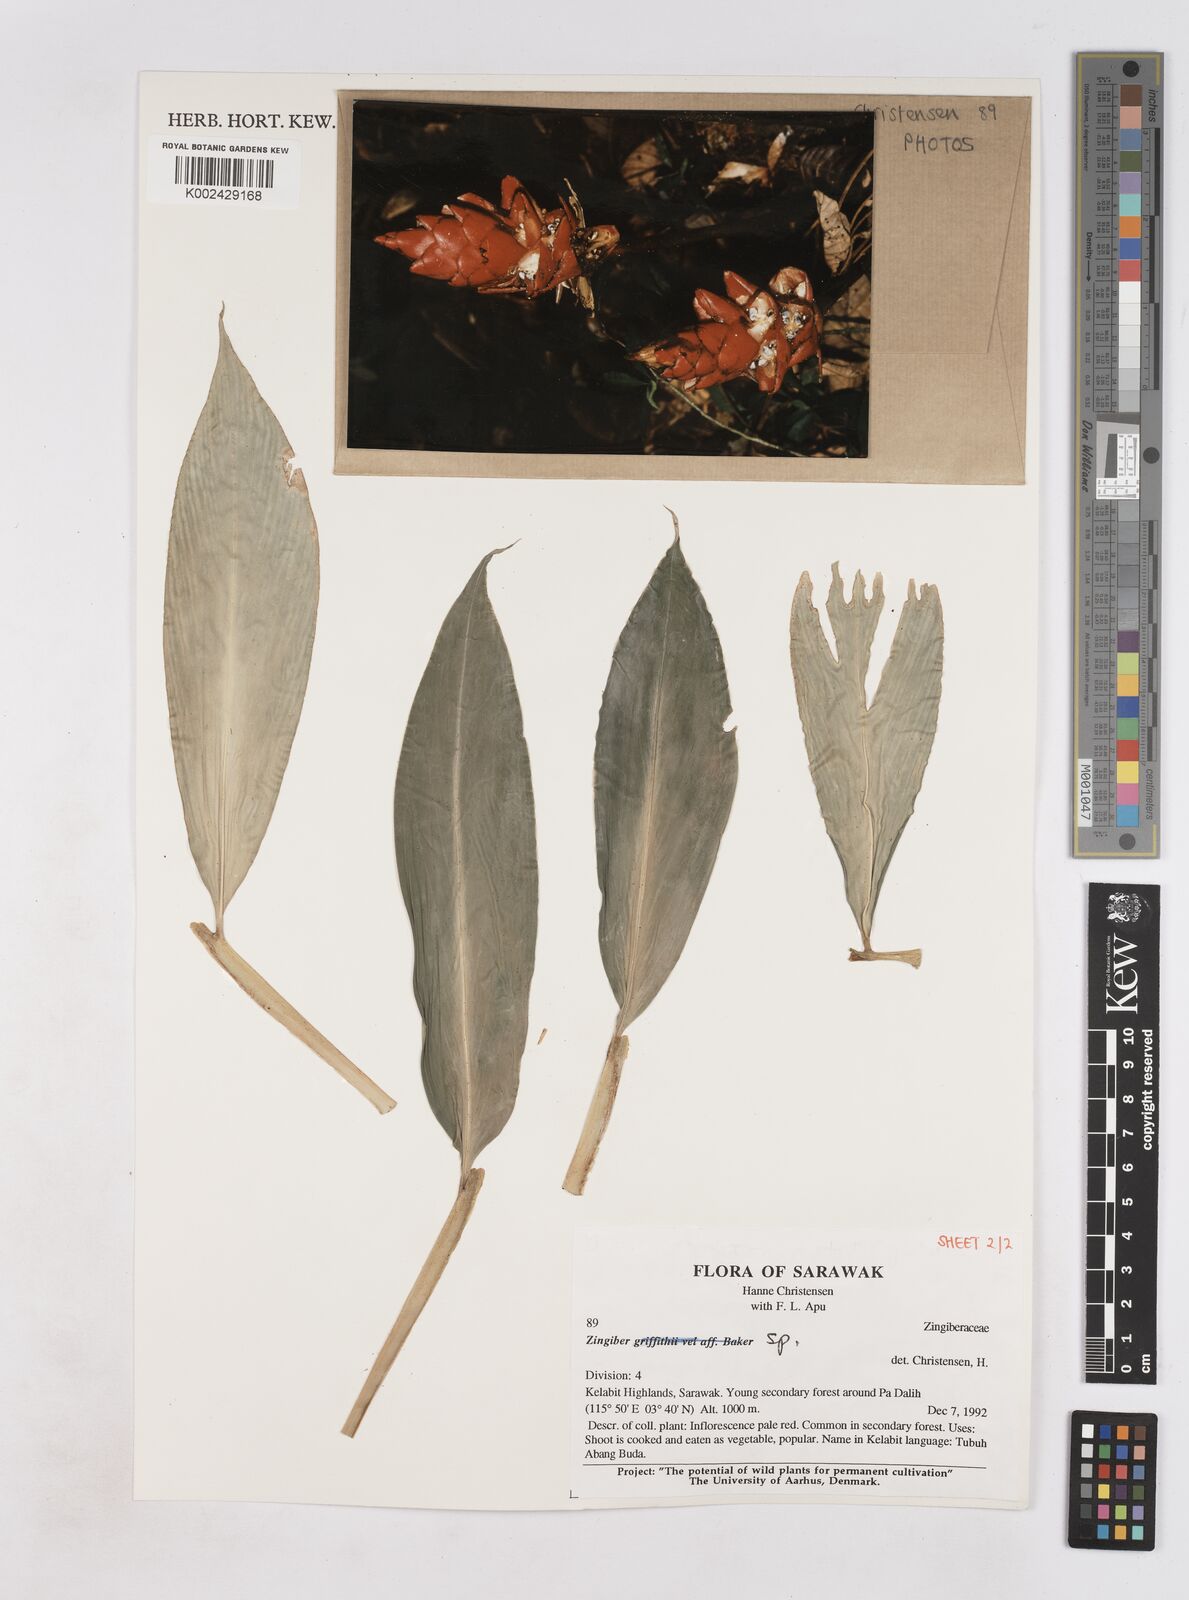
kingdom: Plantae
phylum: Tracheophyta
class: Liliopsida
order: Zingiberales
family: Zingiberaceae
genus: Zingiber
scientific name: Zingiber
